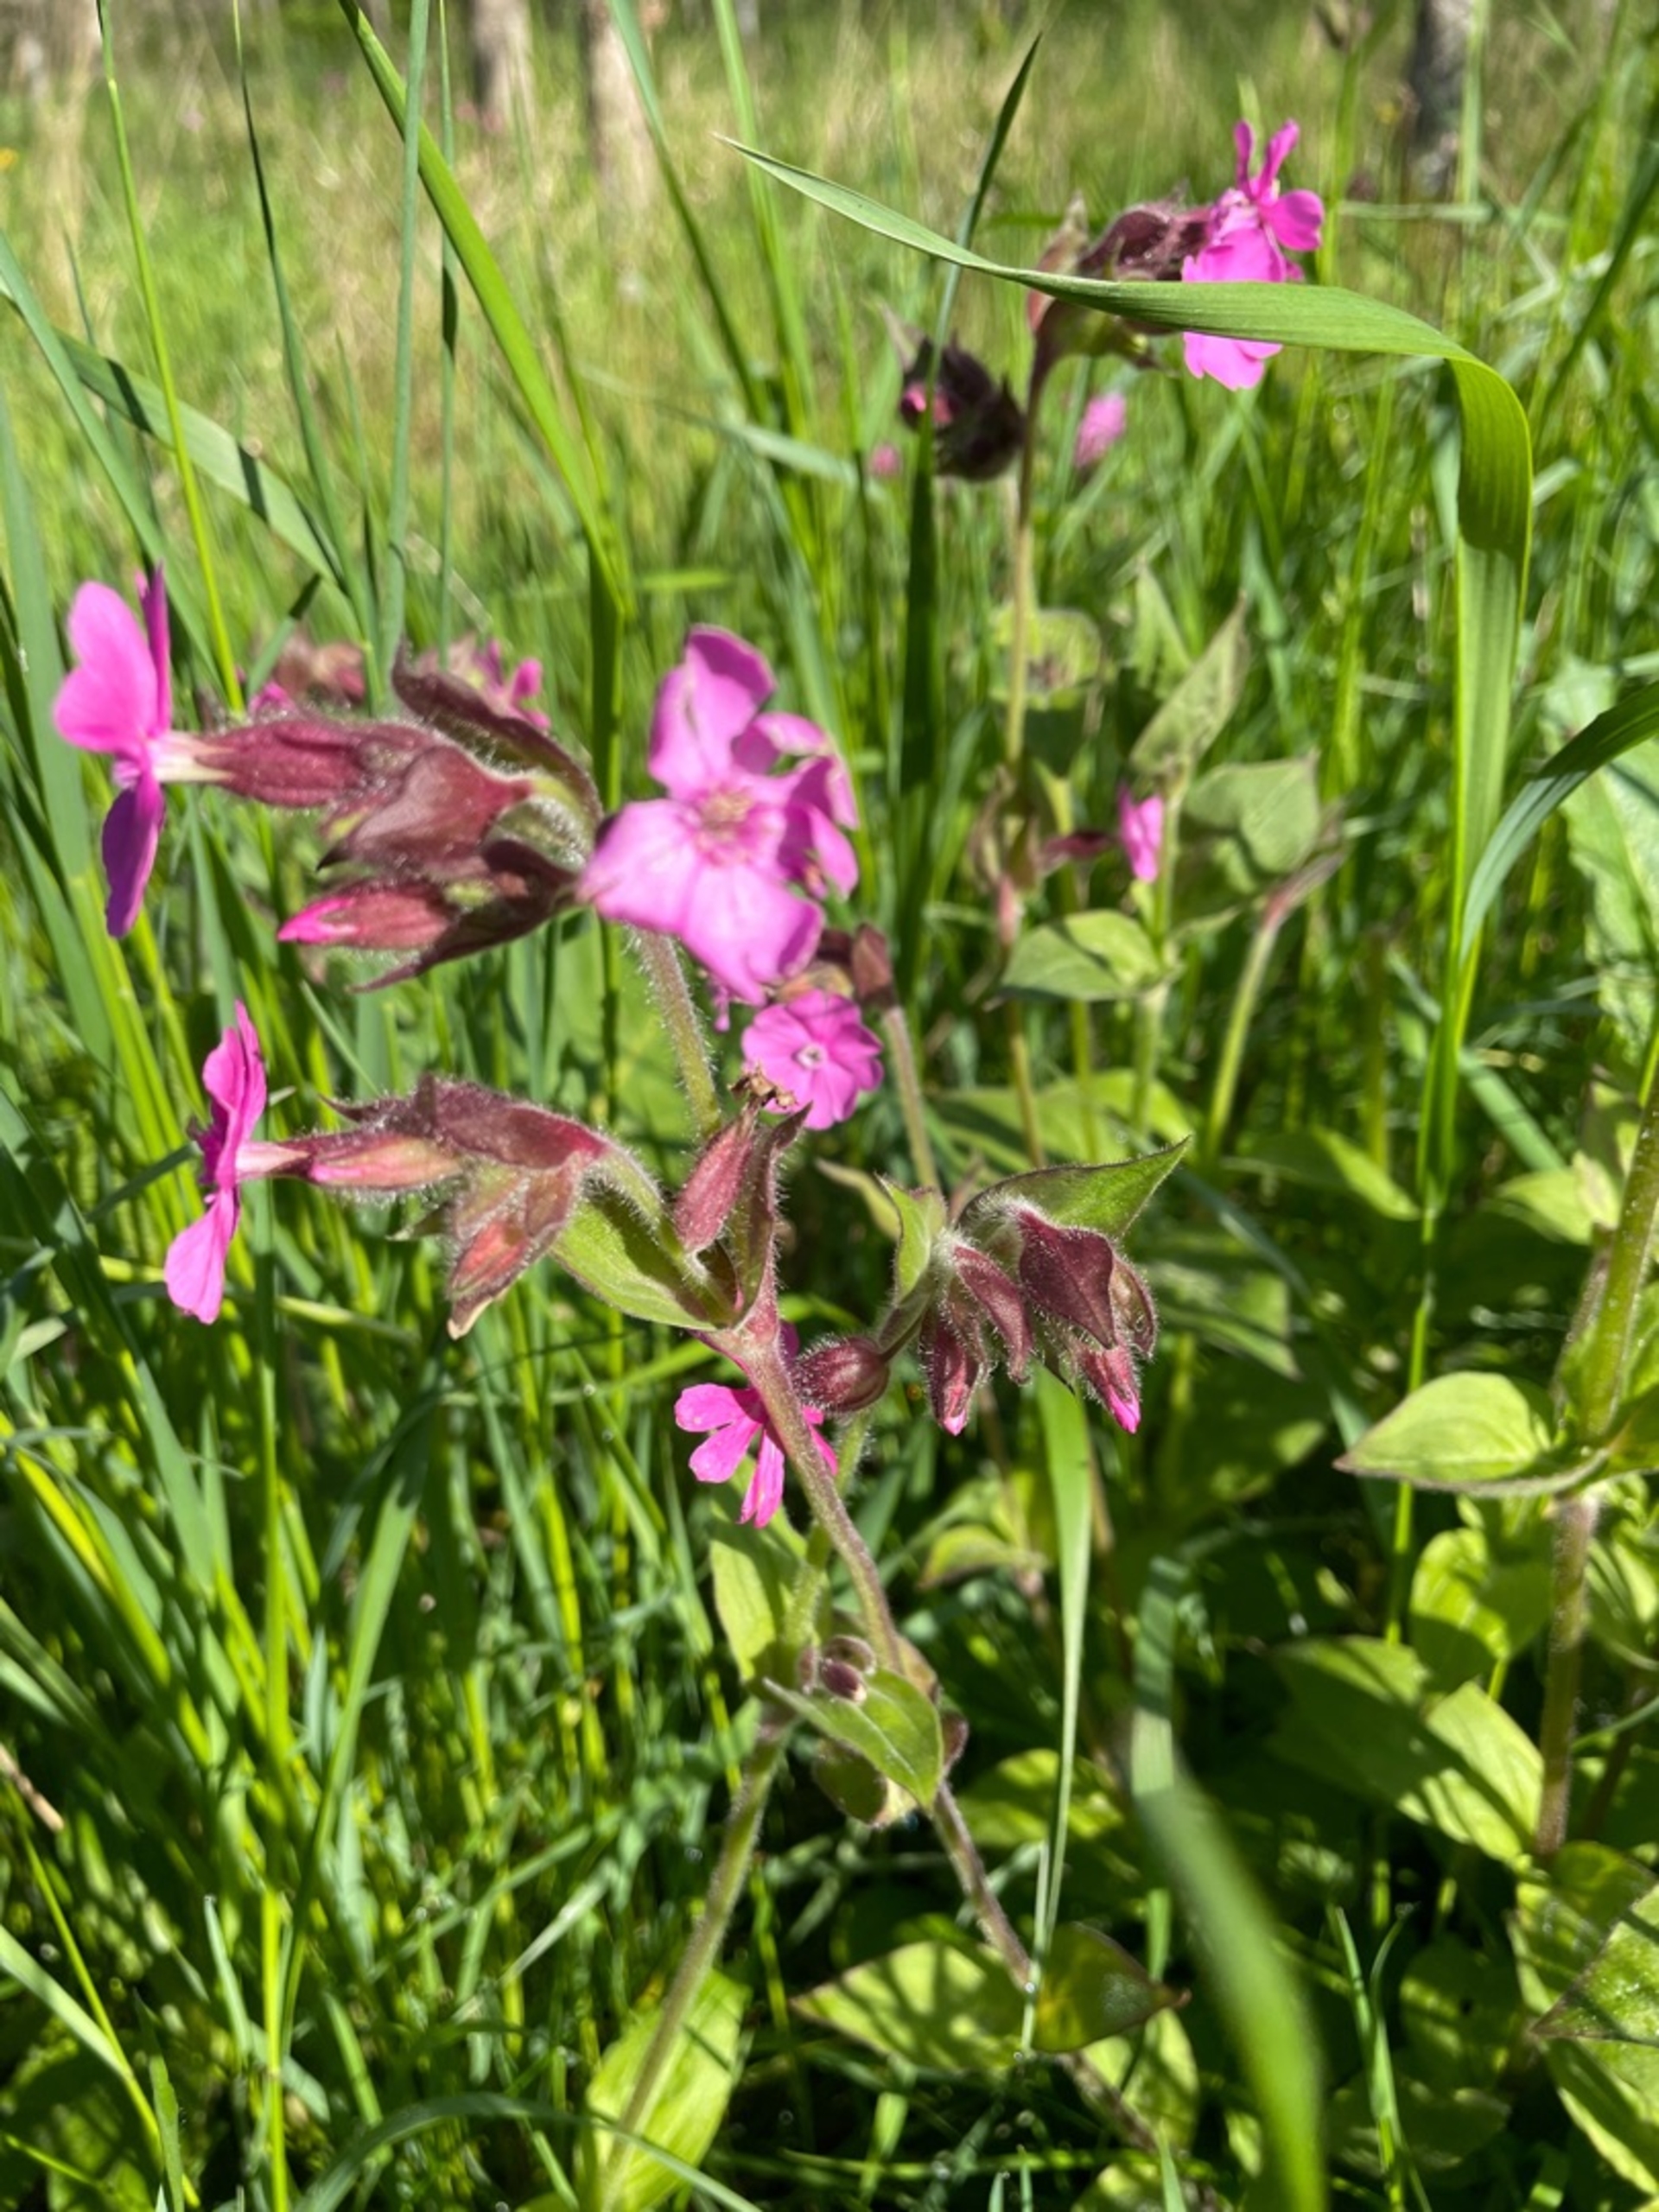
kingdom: Plantae
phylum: Tracheophyta
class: Magnoliopsida
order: Caryophyllales
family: Caryophyllaceae
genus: Silene
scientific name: Silene dioica
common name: Dagpragtstjerne
